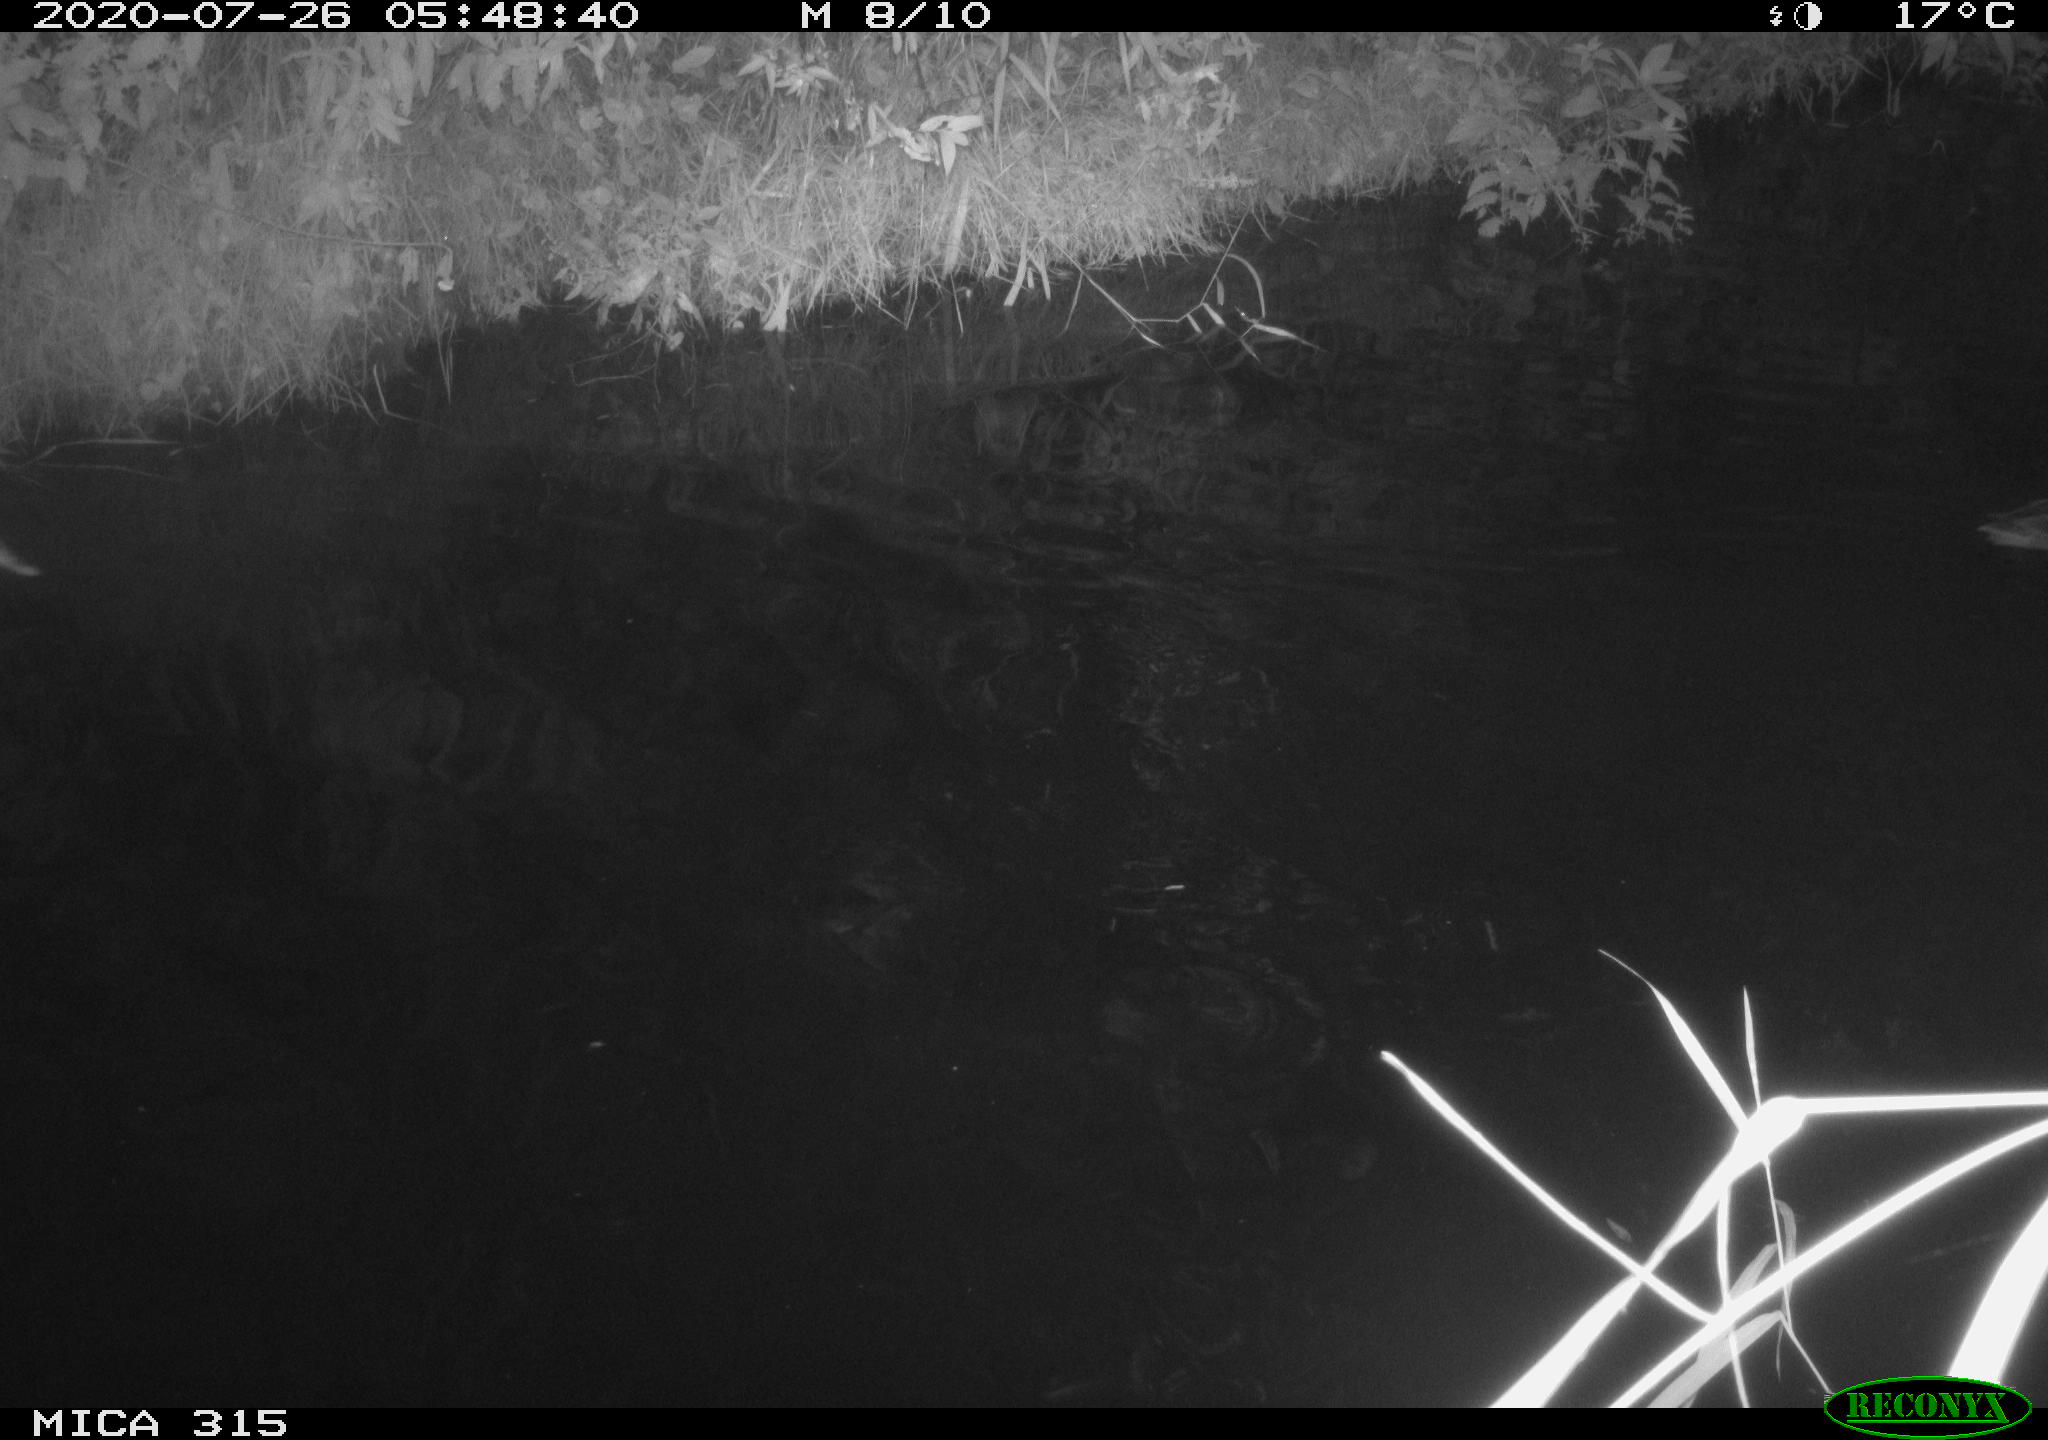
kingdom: Animalia
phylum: Chordata
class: Aves
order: Anseriformes
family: Anatidae
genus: Anas
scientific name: Anas platyrhynchos
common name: Mallard
